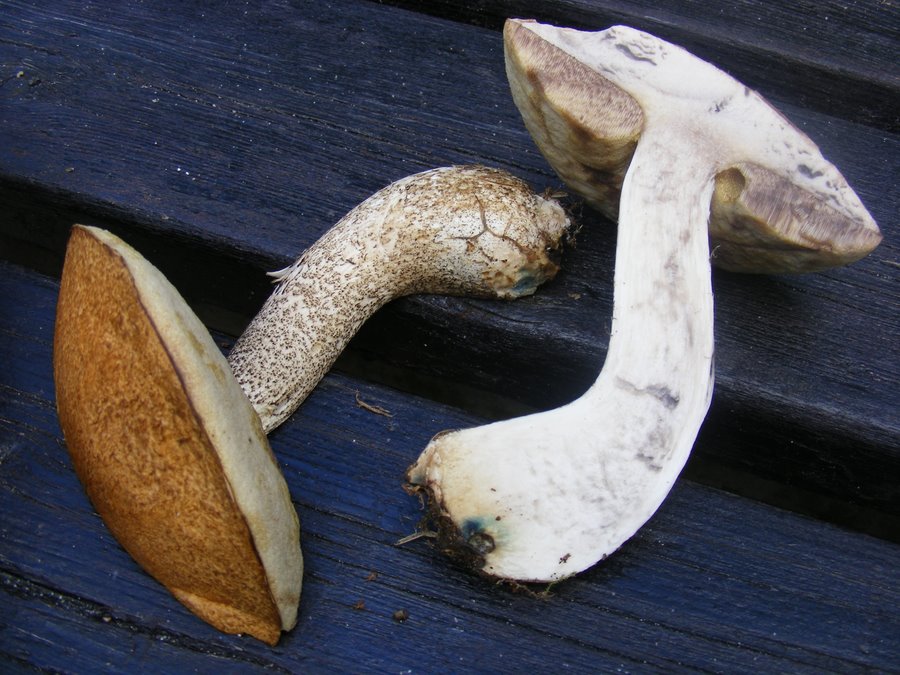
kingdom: Fungi
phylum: Basidiomycota
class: Agaricomycetes
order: Boletales
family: Boletaceae
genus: Leccinum
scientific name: Leccinum versipelle
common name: orange skælrørhat
